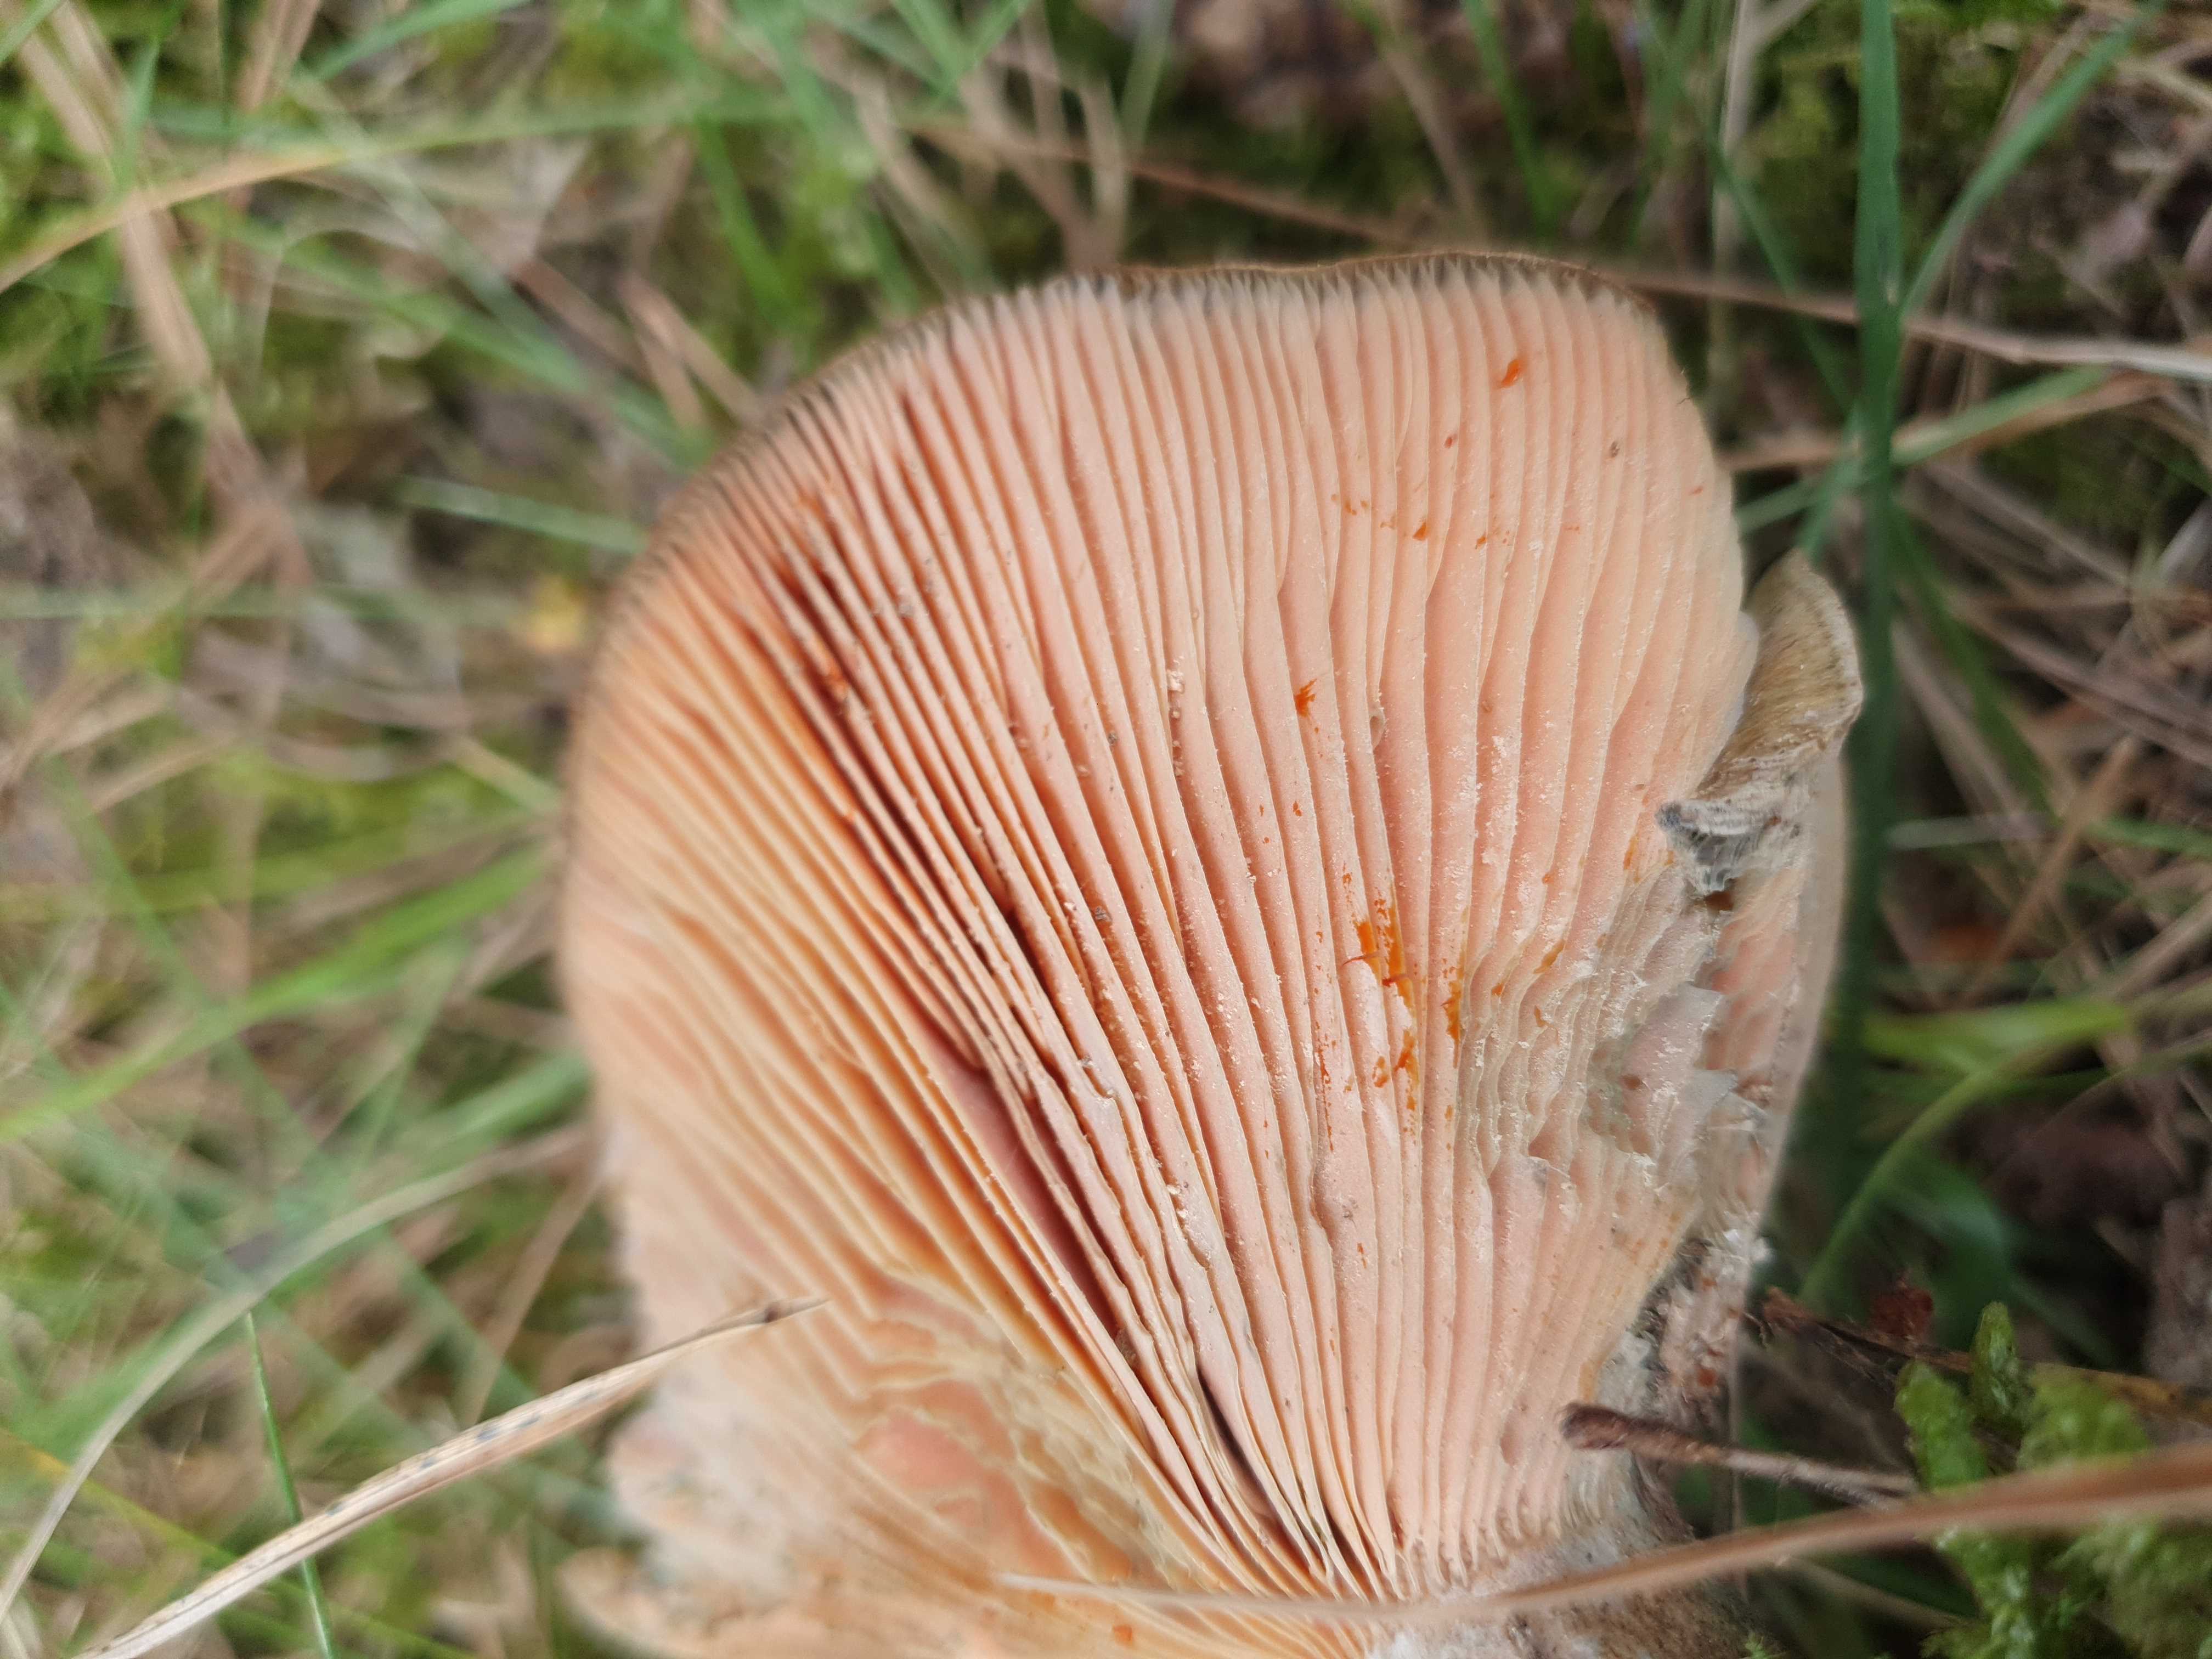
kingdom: Fungi
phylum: Basidiomycota
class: Agaricomycetes
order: Russulales
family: Russulaceae
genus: Lactarius
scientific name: Lactarius
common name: mælkehat
